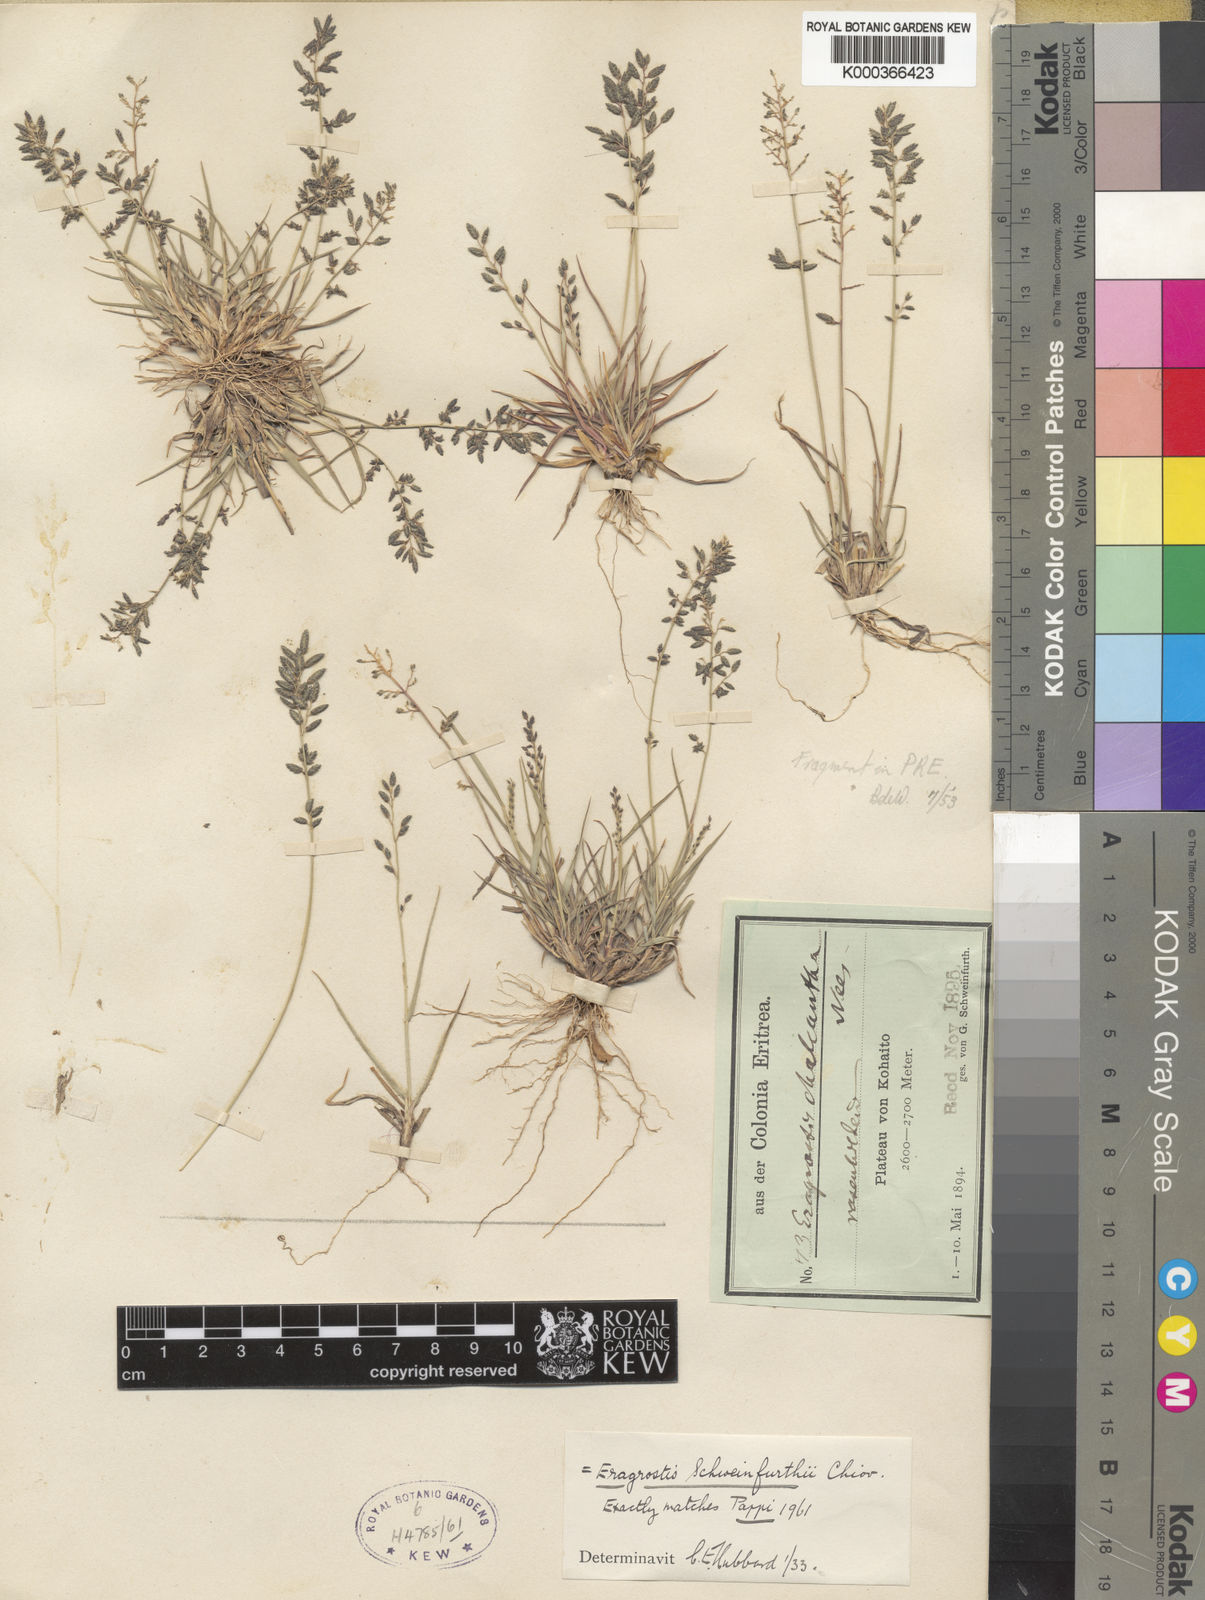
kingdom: Plantae
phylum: Tracheophyta
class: Liliopsida
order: Poales
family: Poaceae
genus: Eragrostis
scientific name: Eragrostis schweinfurthii
